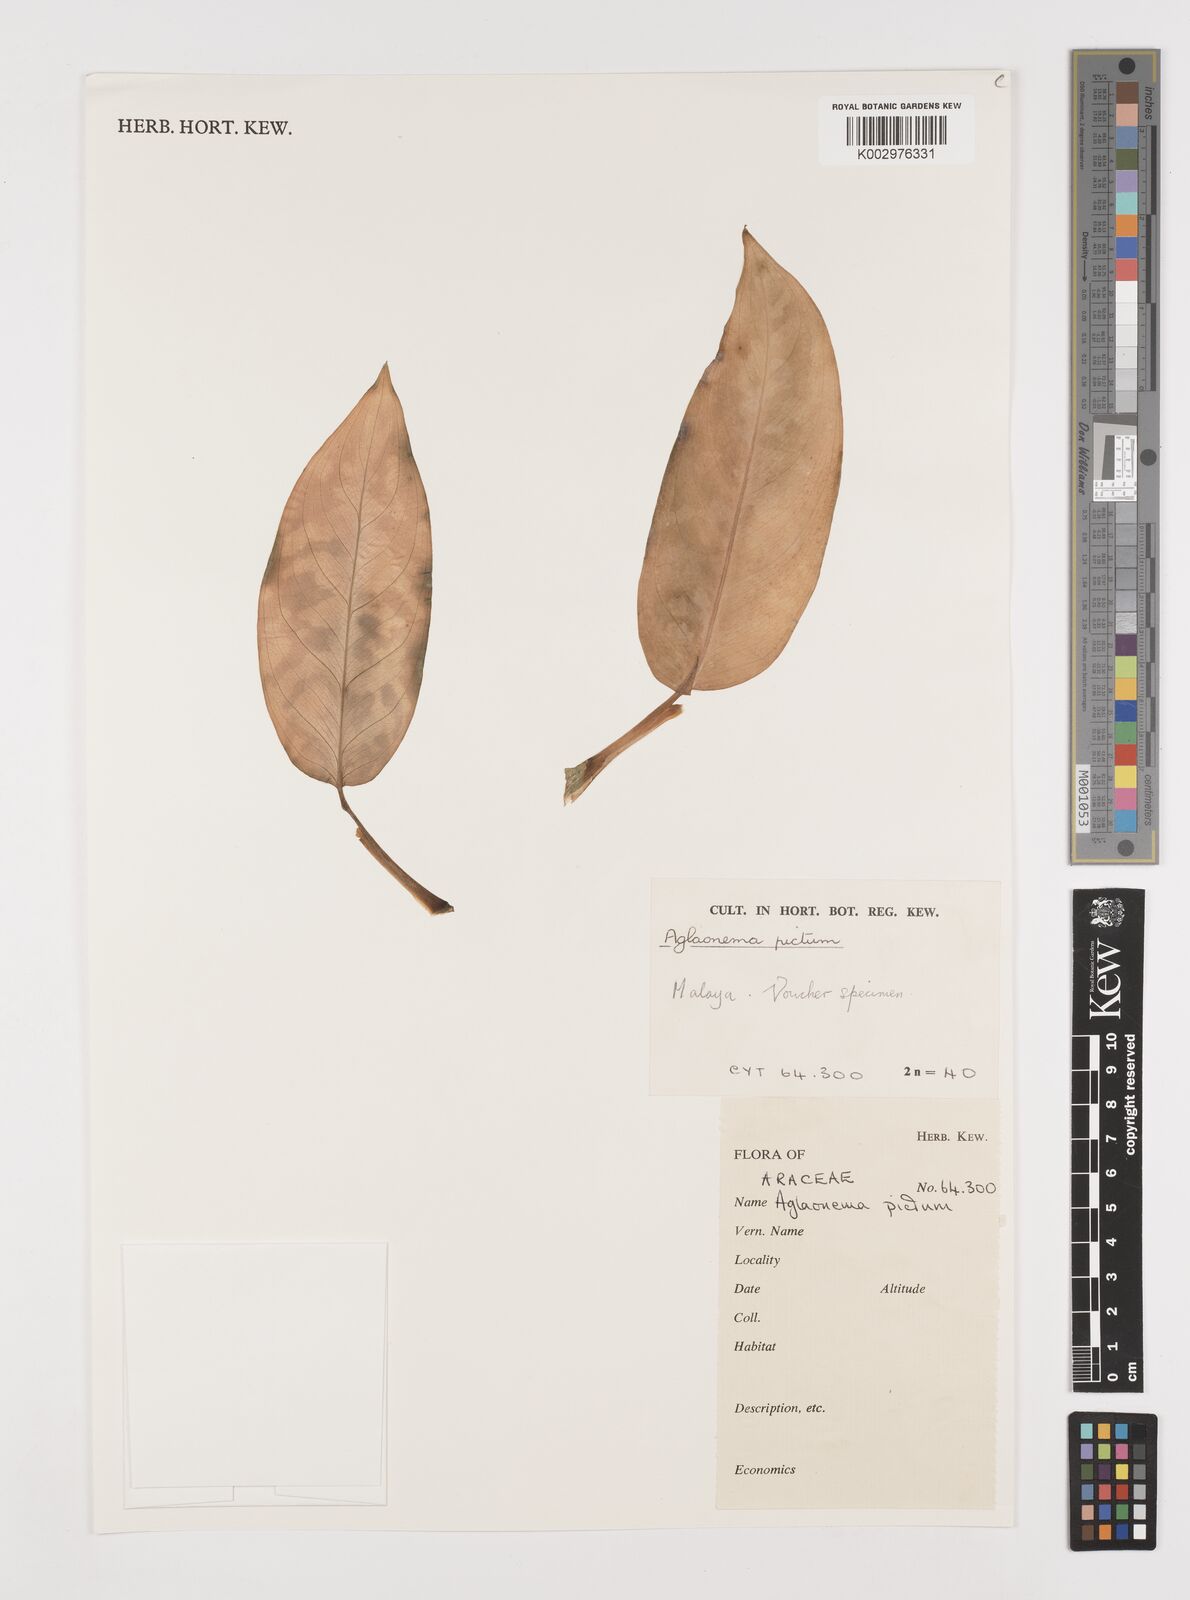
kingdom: Plantae
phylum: Tracheophyta
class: Liliopsida
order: Alismatales
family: Araceae
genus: Aglaonema
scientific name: Aglaonema pictum
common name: Aglaonema aroid
